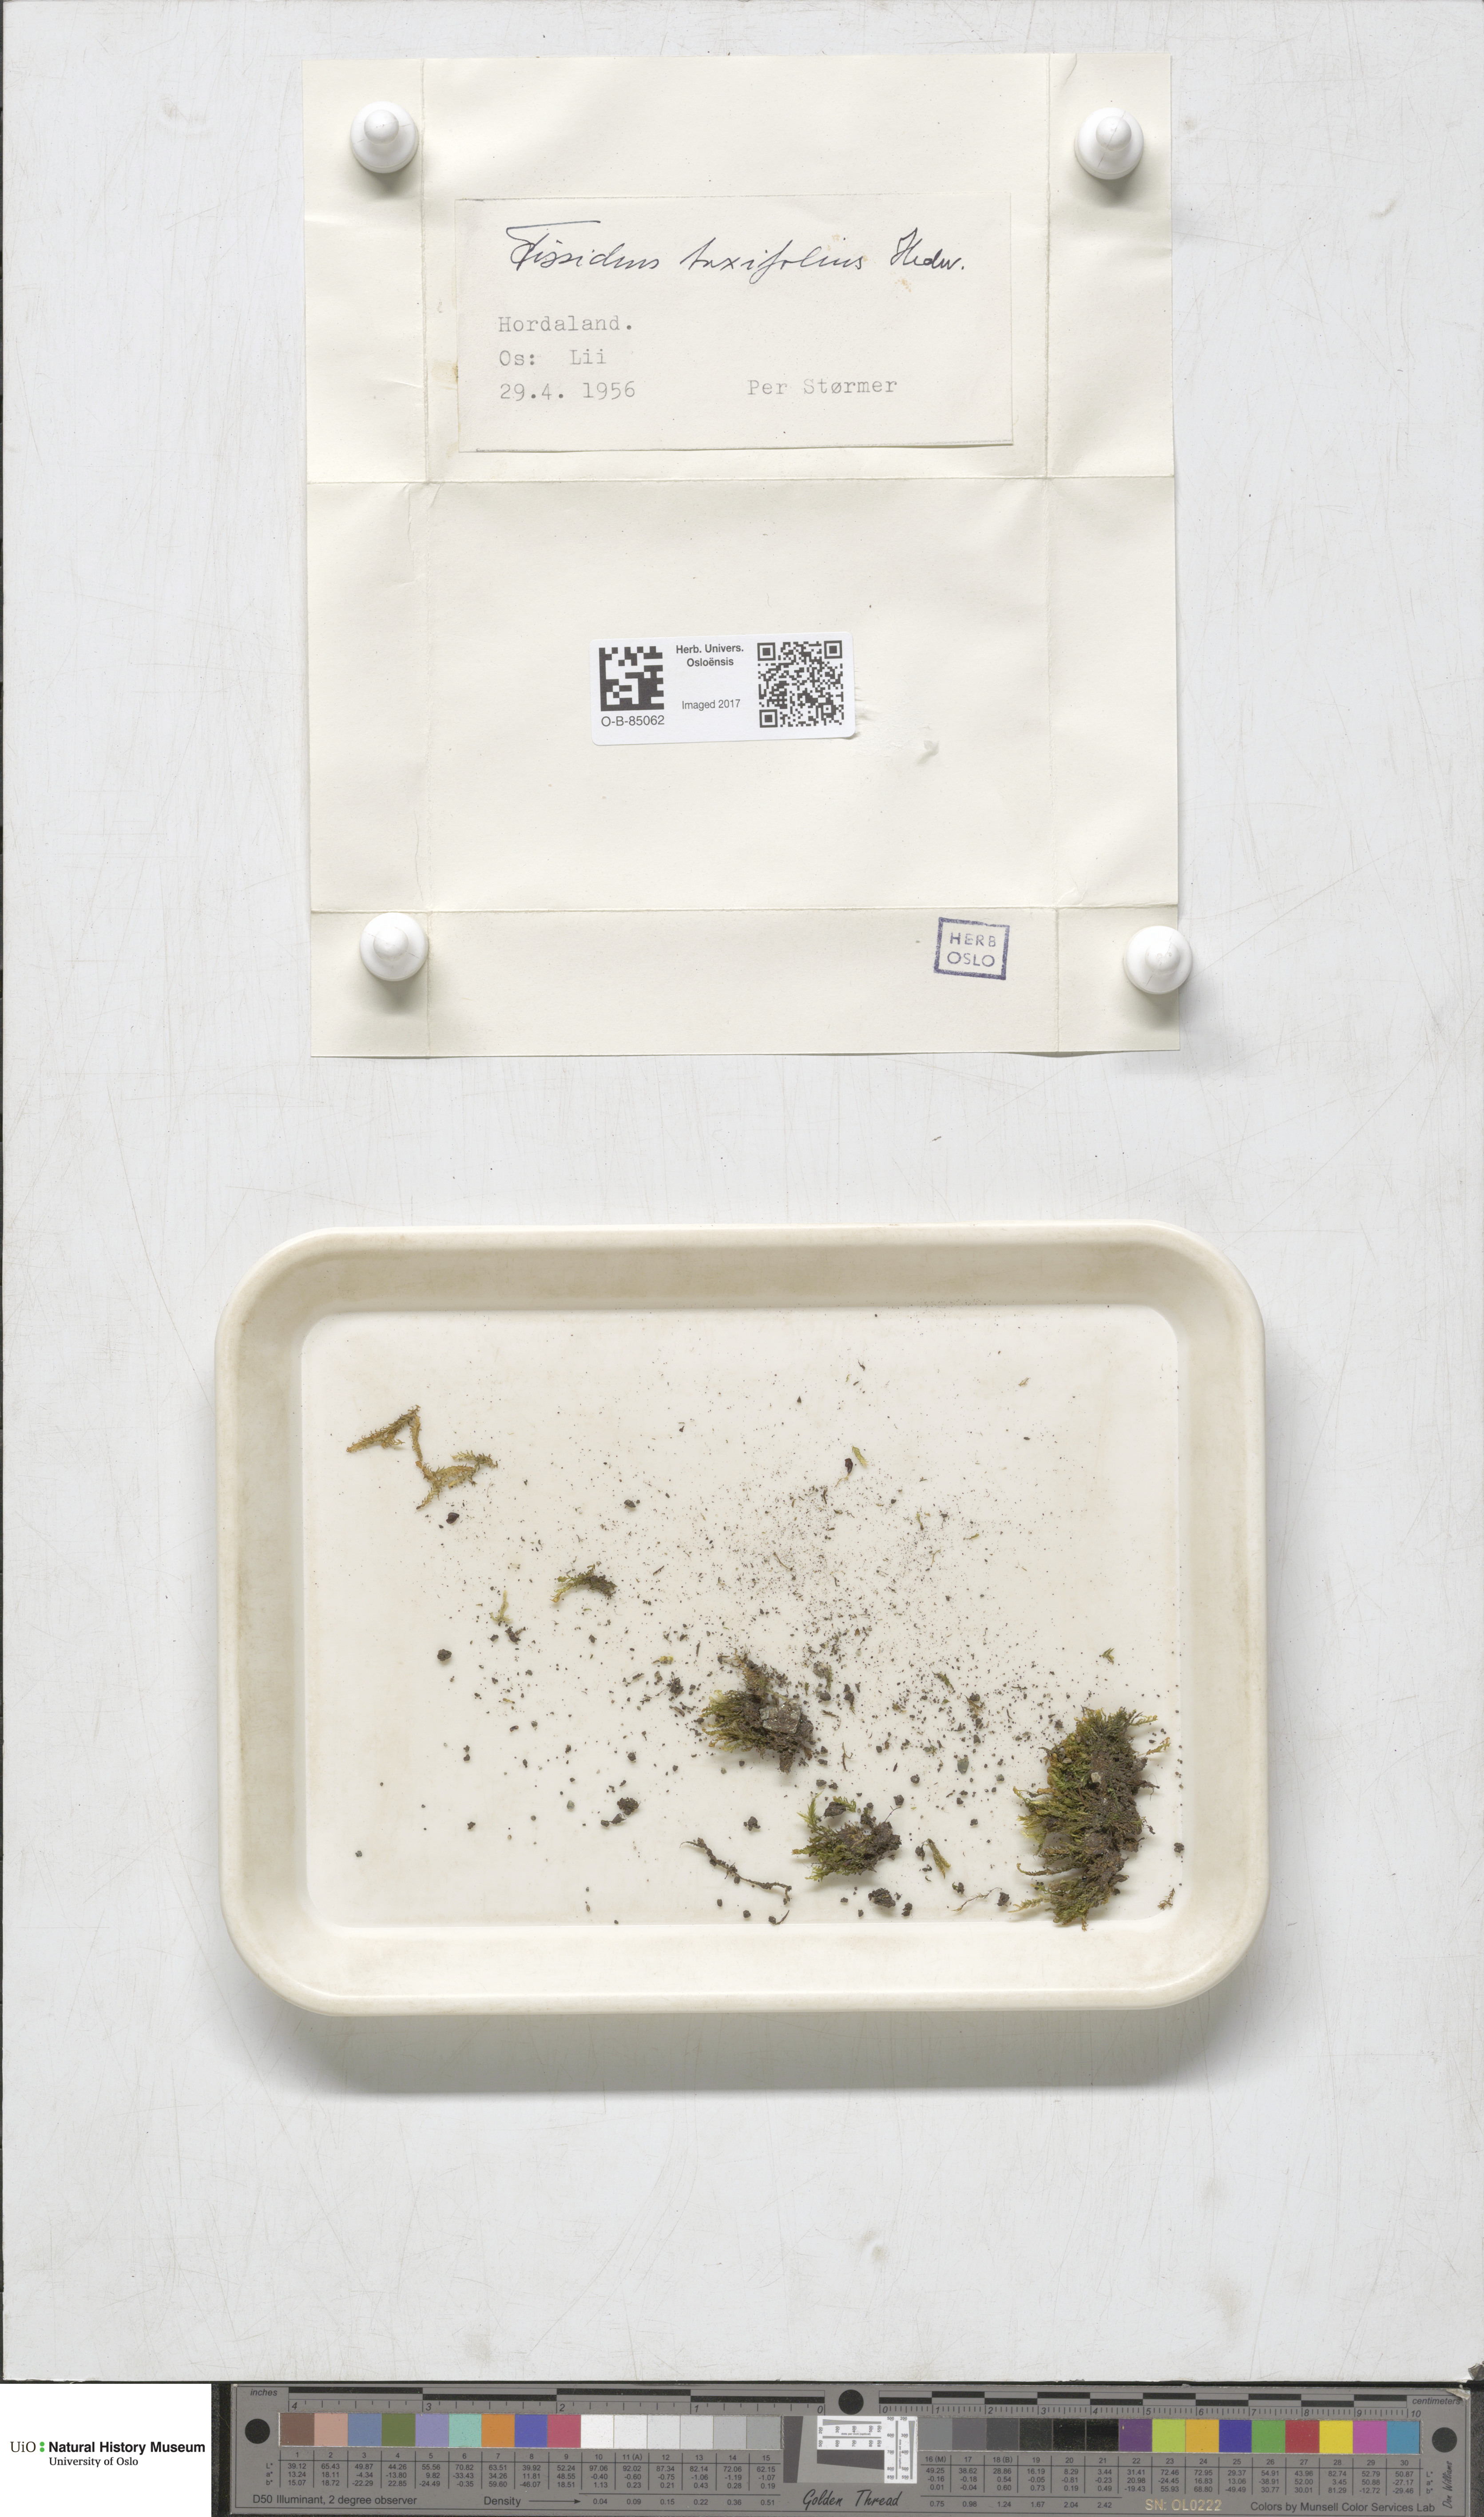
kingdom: Plantae
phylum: Bryophyta
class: Bryopsida
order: Dicranales
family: Fissidentaceae
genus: Fissidens
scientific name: Fissidens taxifolius
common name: Yew-leaved pocket moss
